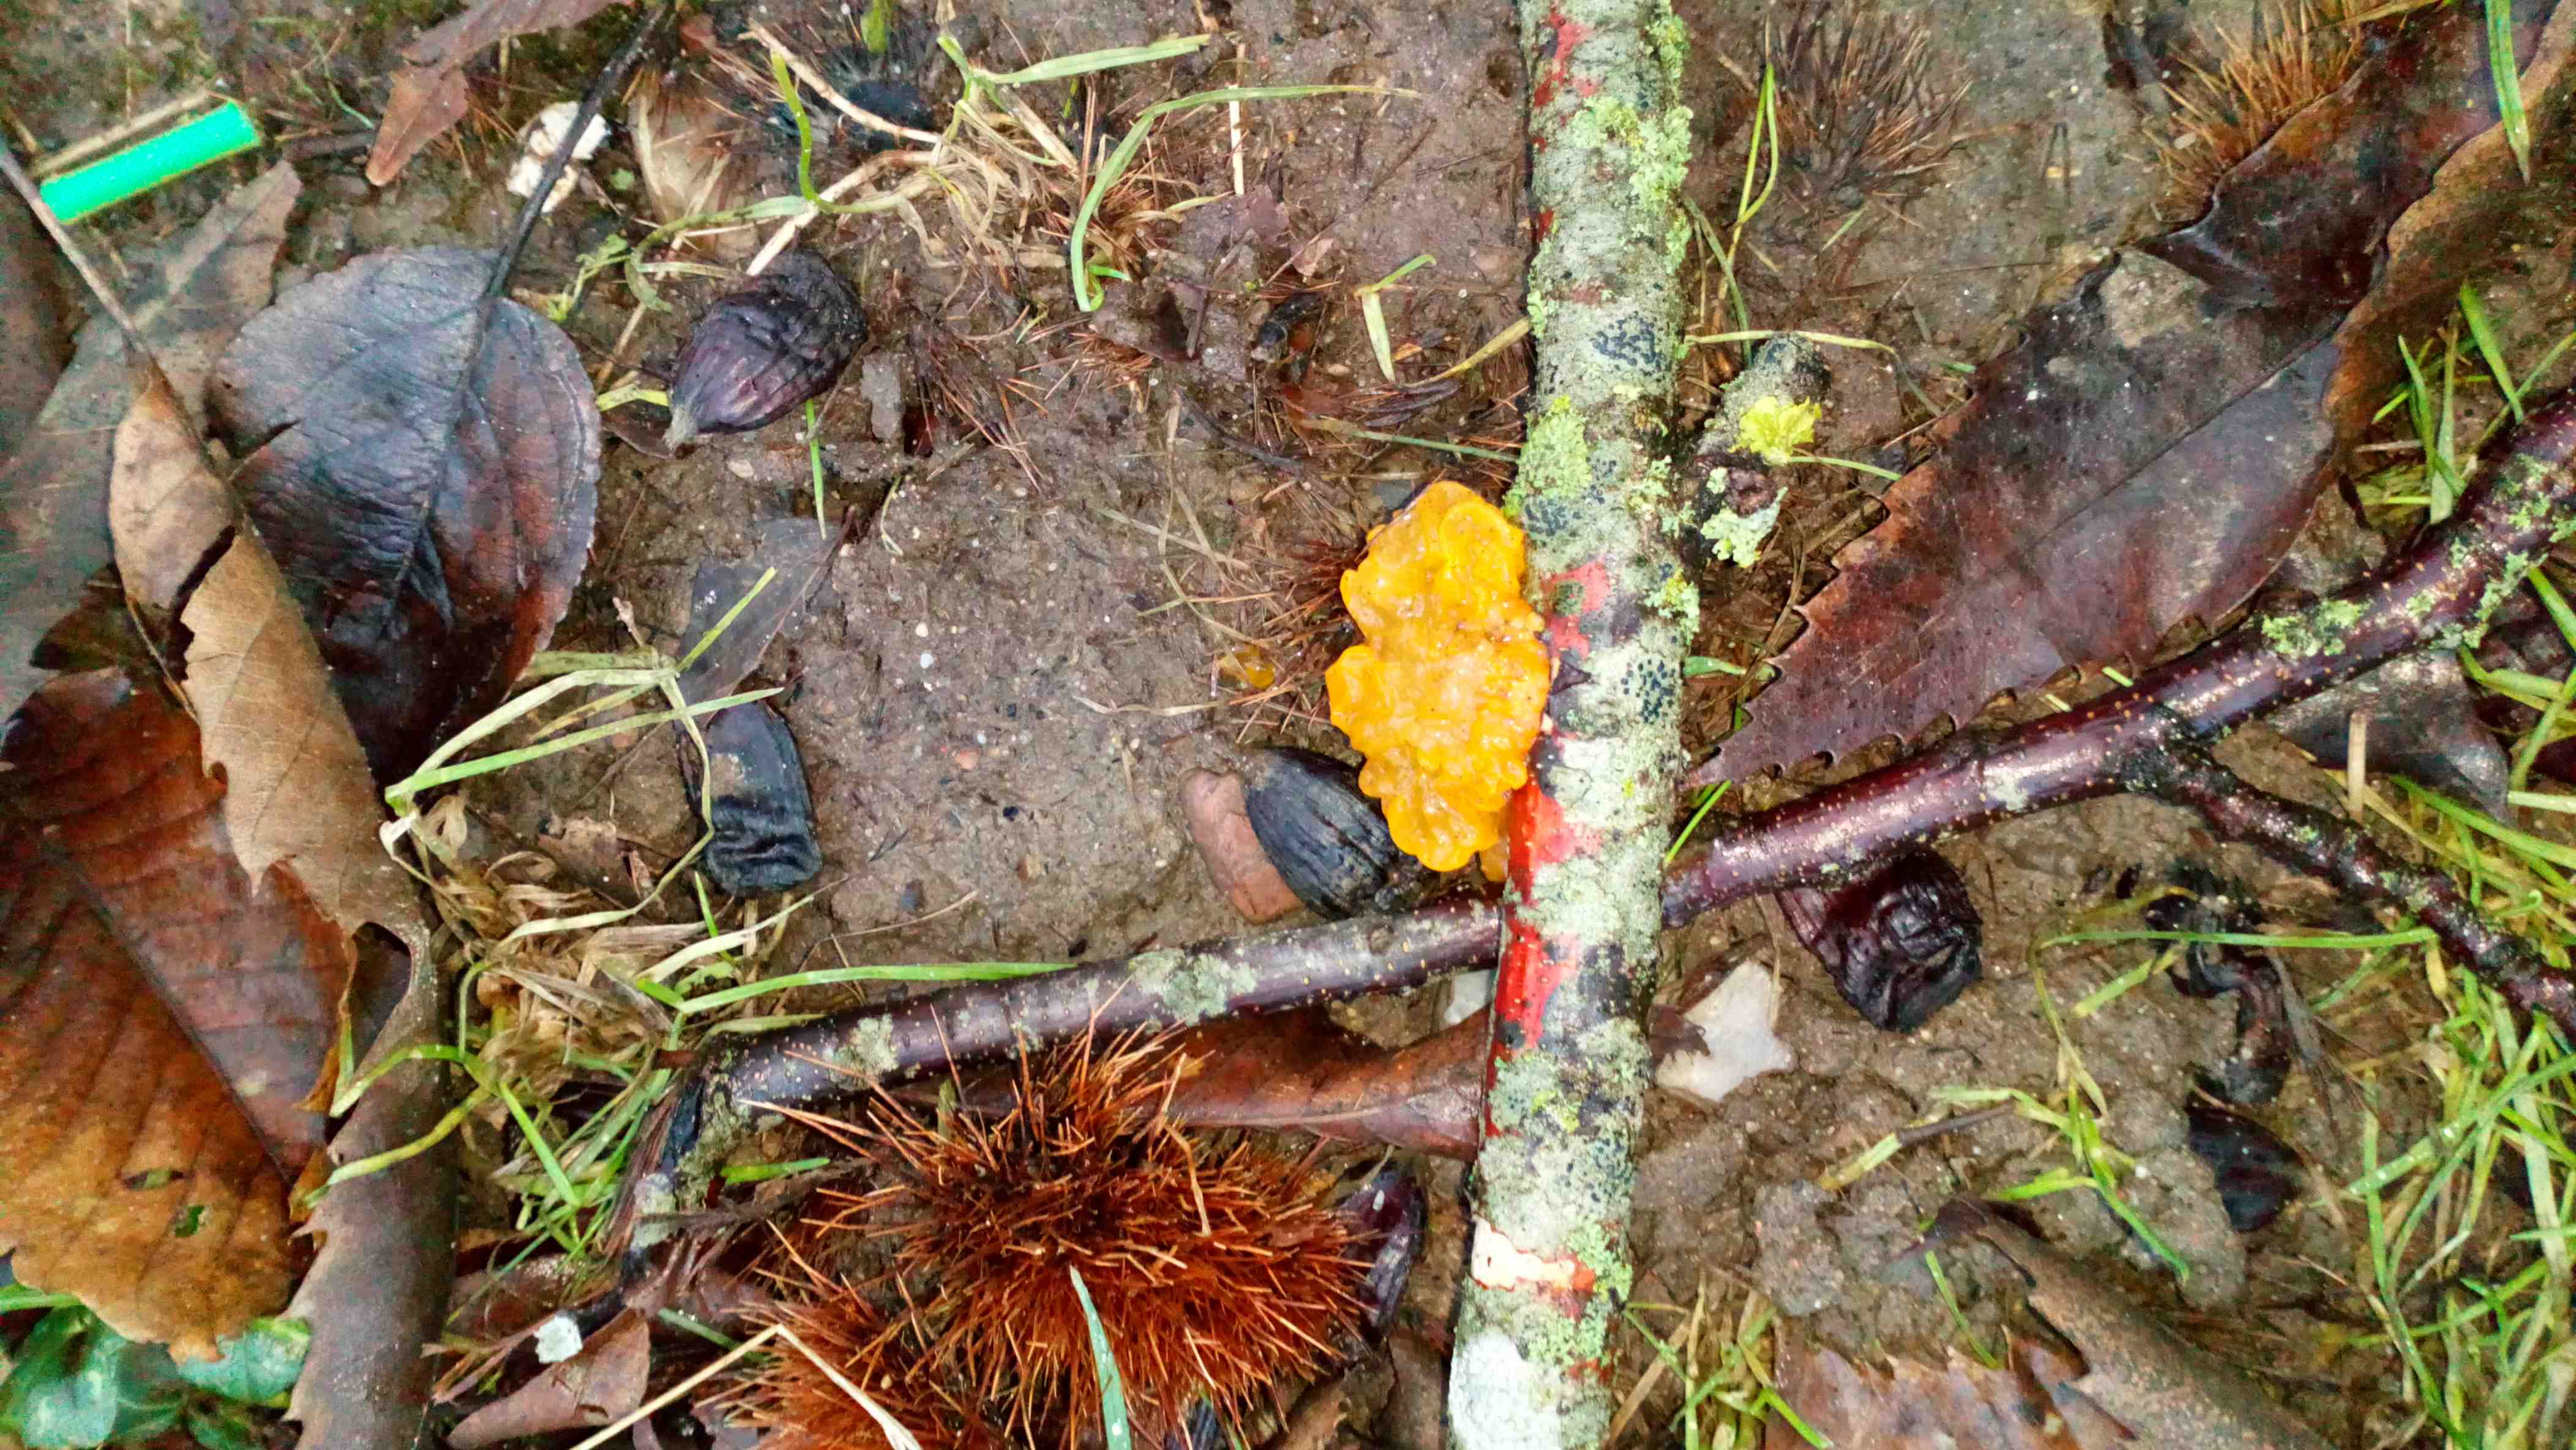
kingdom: Fungi
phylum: Basidiomycota
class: Tremellomycetes
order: Tremellales
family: Tremellaceae
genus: Tremella
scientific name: Tremella mesenterica
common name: gul bævresvamp
